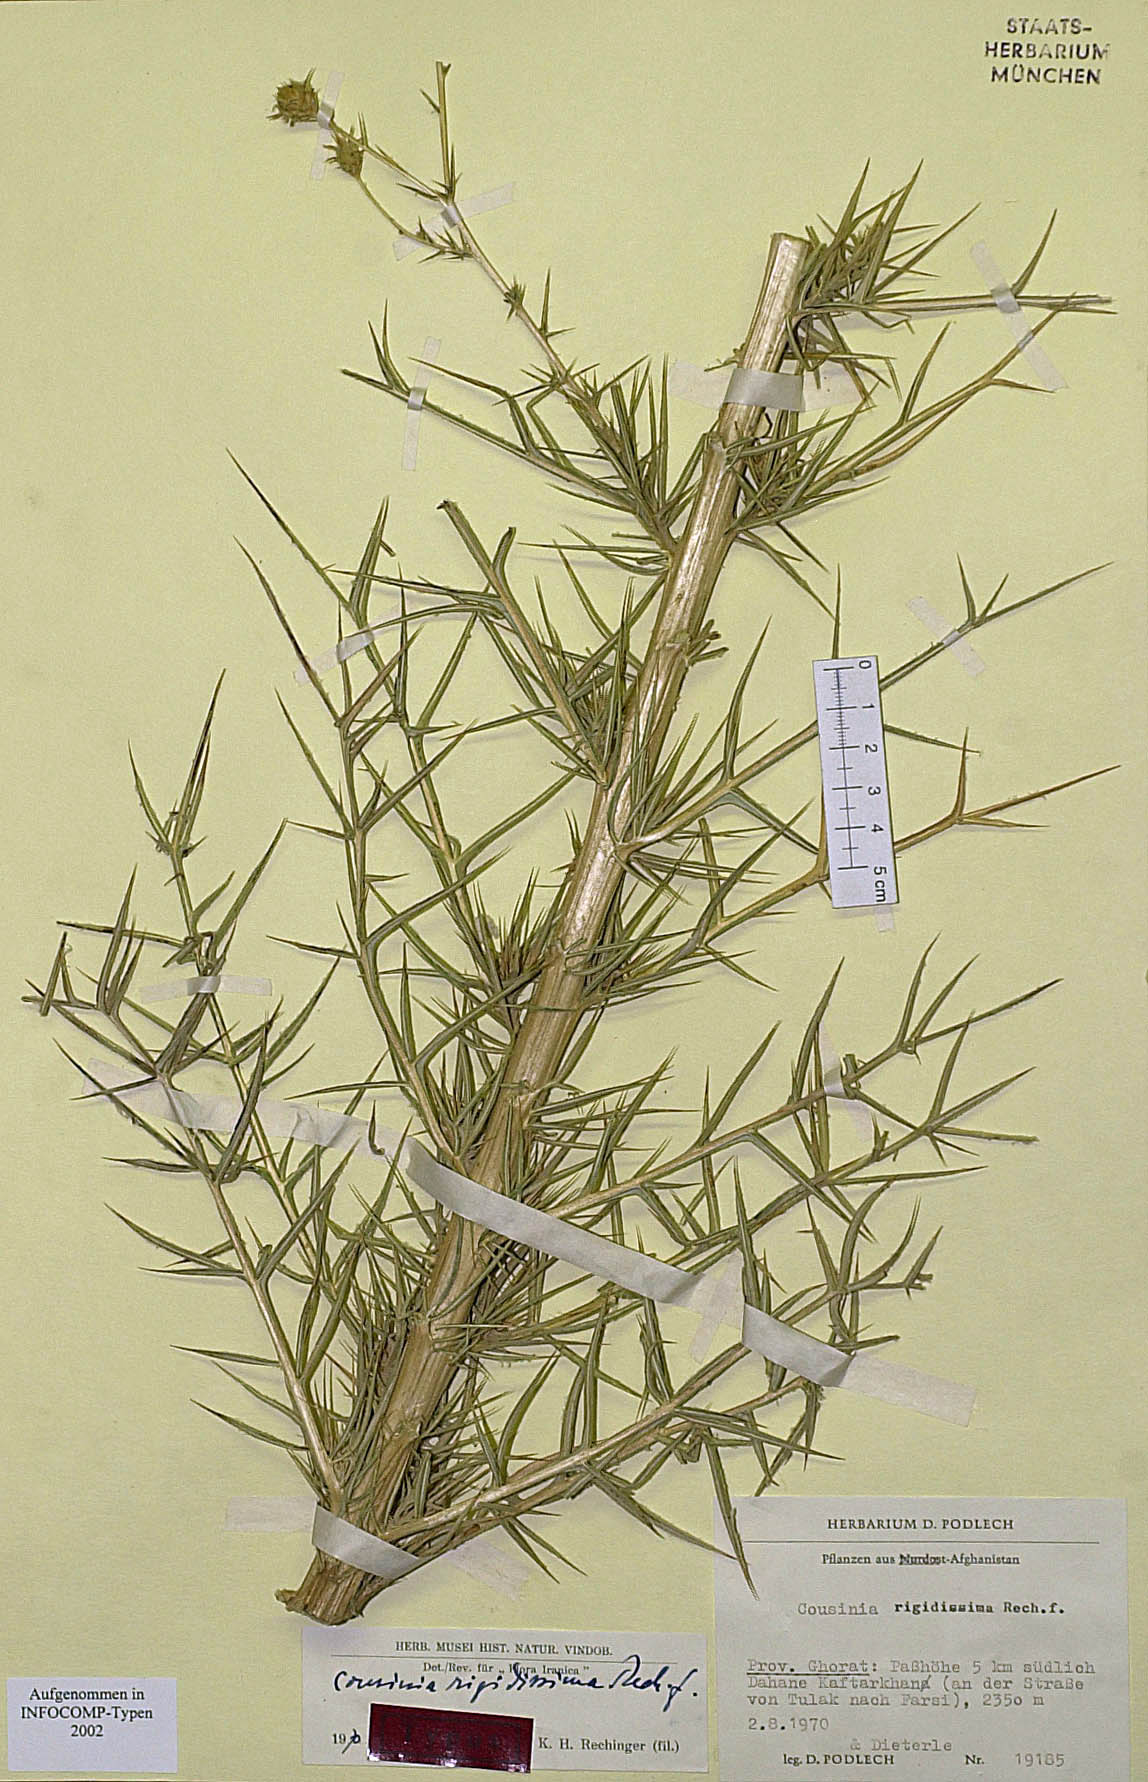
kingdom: Plantae
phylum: Tracheophyta
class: Magnoliopsida
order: Asterales
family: Asteraceae
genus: Cousinia
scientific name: Cousinia rigidissima
